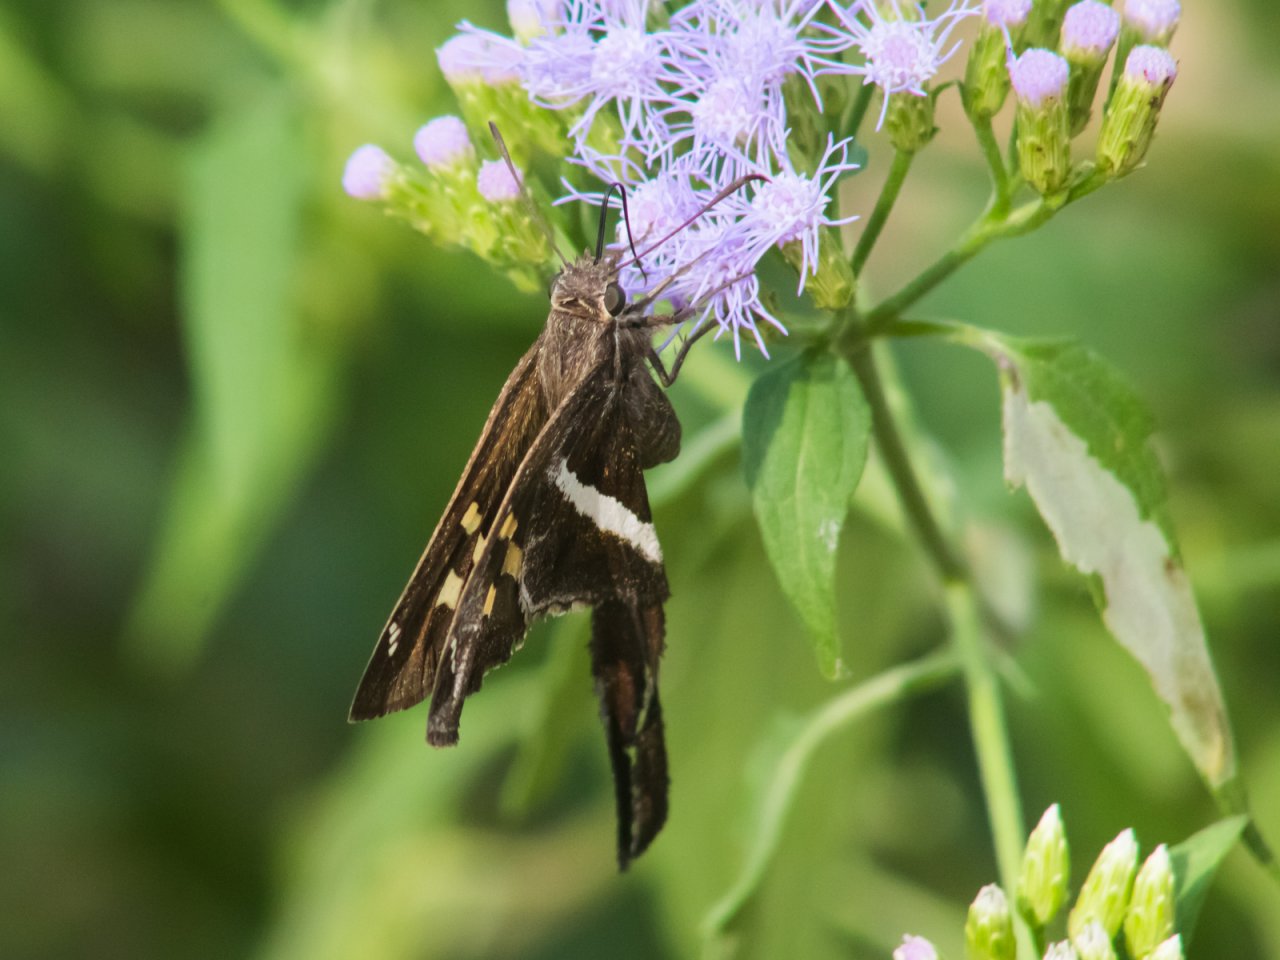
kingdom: Animalia
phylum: Arthropoda
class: Insecta
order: Lepidoptera
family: Hesperiidae
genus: Chioides
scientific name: Chioides catillus
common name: White-striped Longtail
